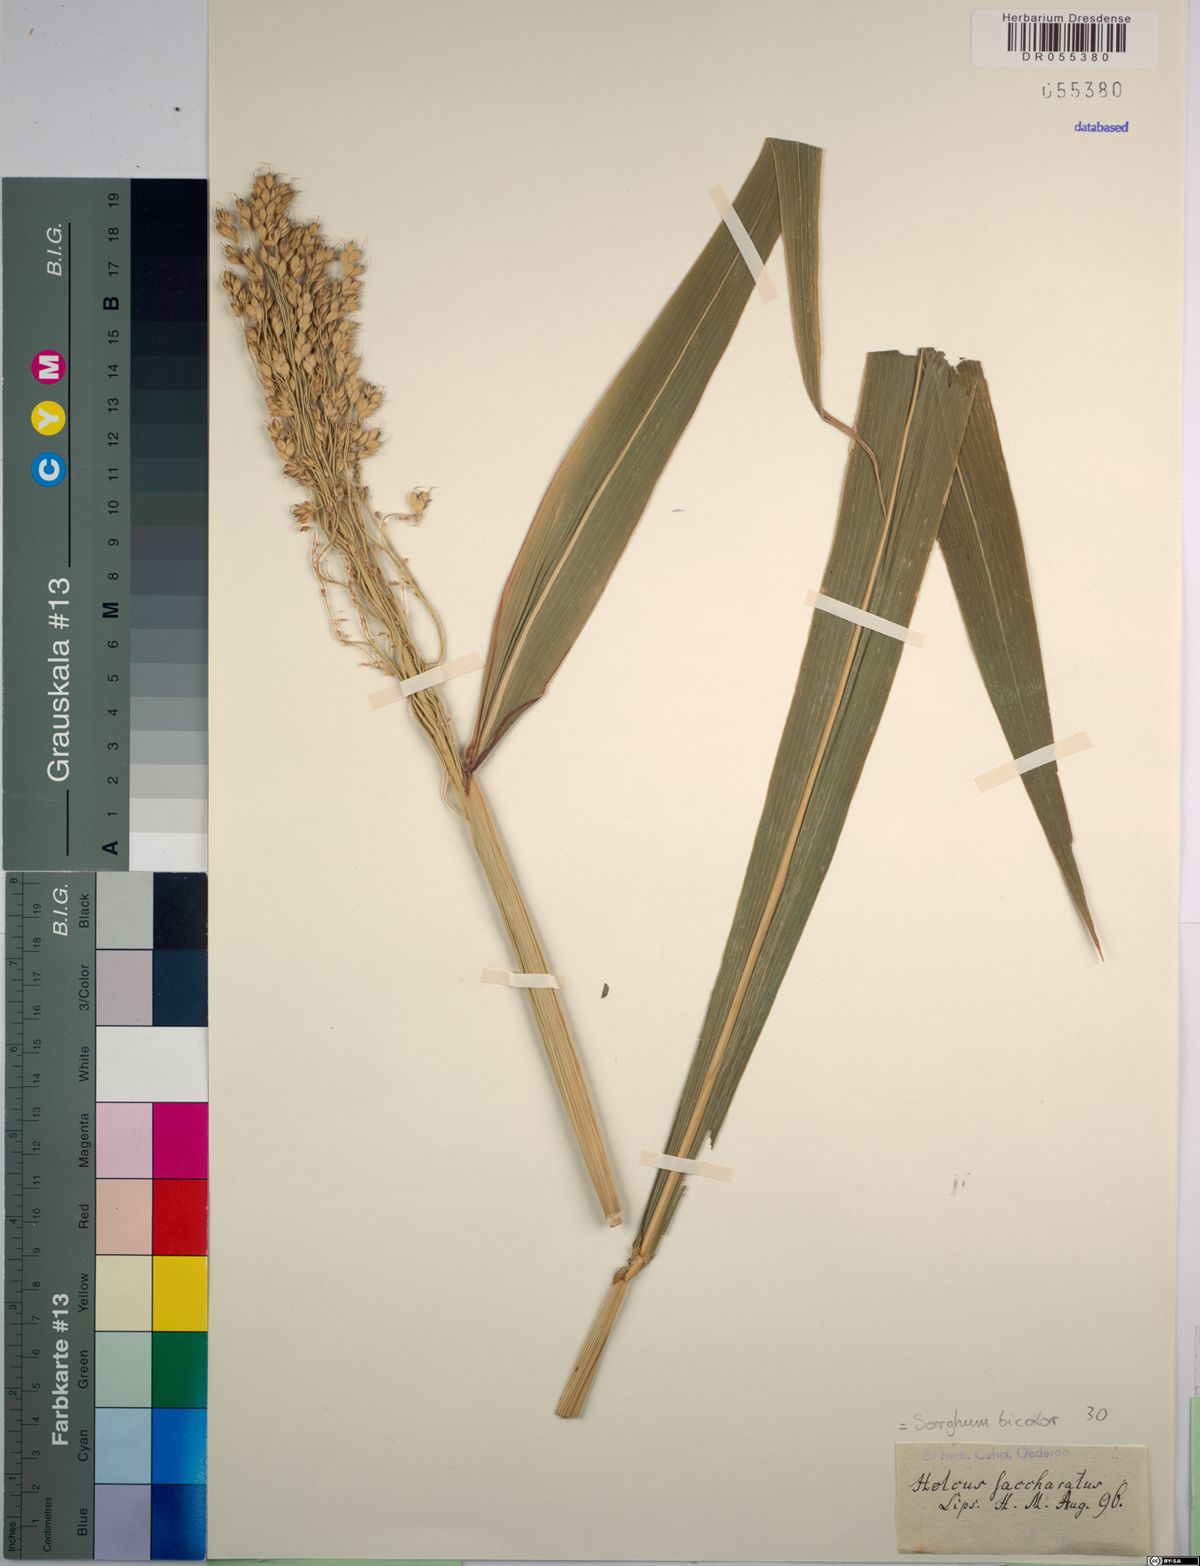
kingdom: Plantae
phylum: Tracheophyta
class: Liliopsida
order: Poales
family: Poaceae
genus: Sorghum
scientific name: Sorghum bicolor
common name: Sorghum
